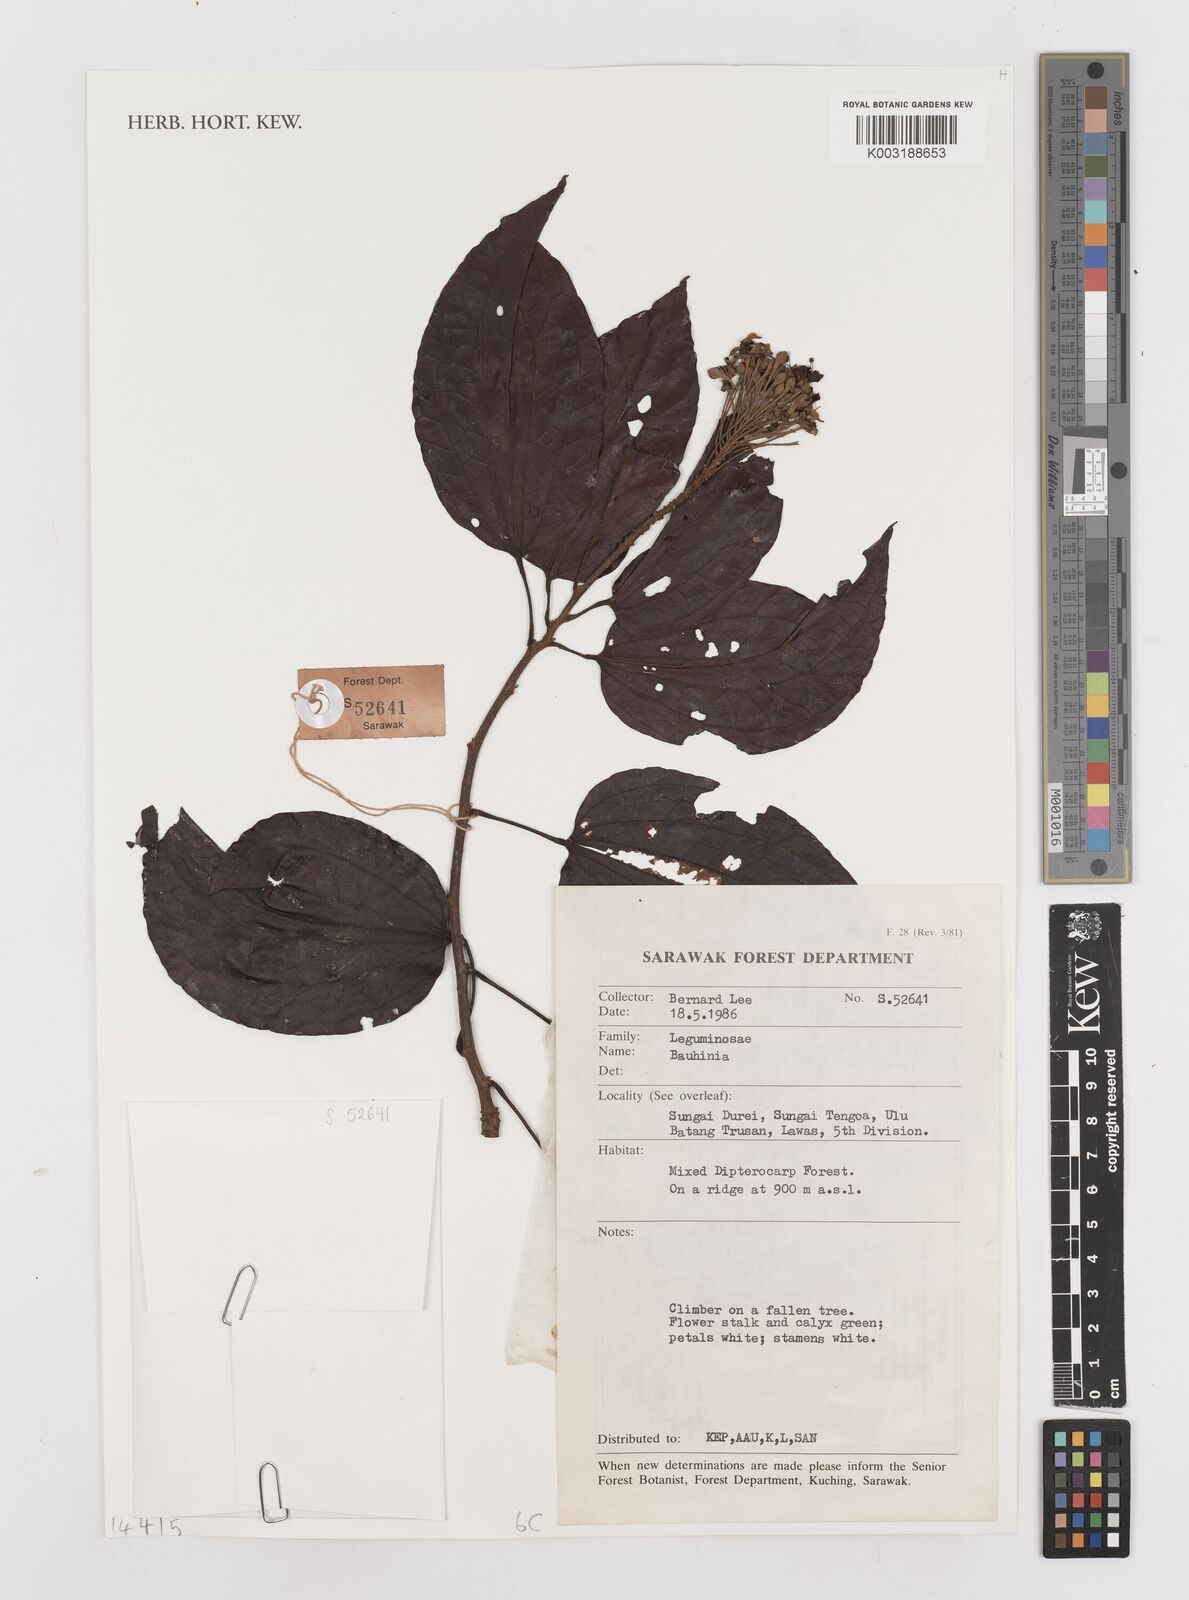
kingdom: Plantae
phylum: Tracheophyta
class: Magnoliopsida
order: Fabales
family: Fabaceae
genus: Bauhinia
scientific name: Bauhinia
